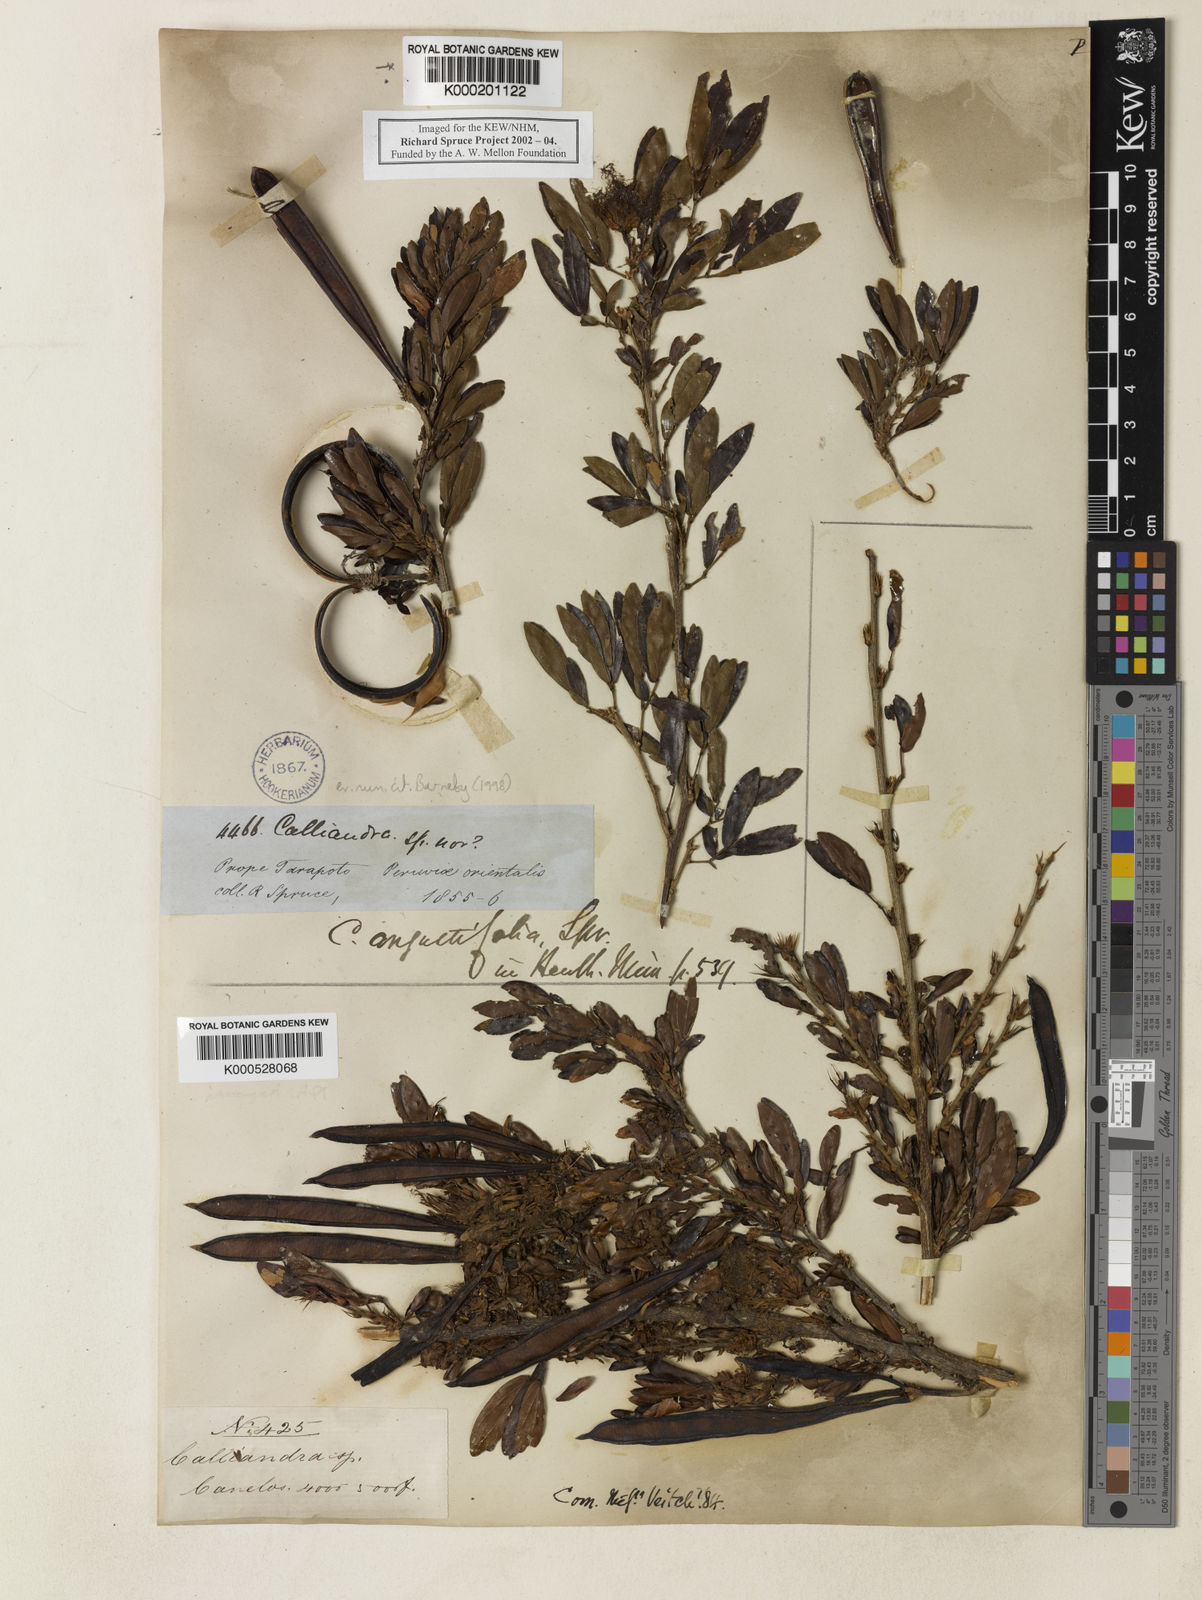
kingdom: Plantae
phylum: Tracheophyta
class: Magnoliopsida
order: Fabales
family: Fabaceae
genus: Calliandra
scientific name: Calliandra angustifolia
